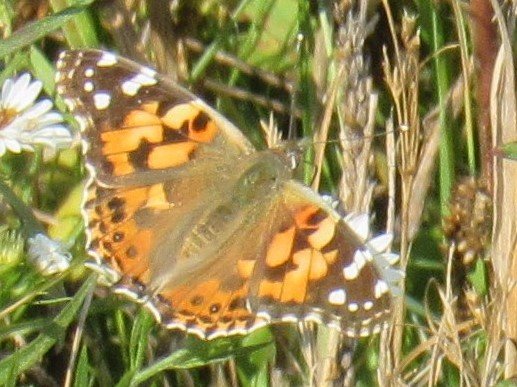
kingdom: Animalia
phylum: Arthropoda
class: Insecta
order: Lepidoptera
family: Nymphalidae
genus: Vanessa
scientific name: Vanessa cardui
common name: Painted Lady
